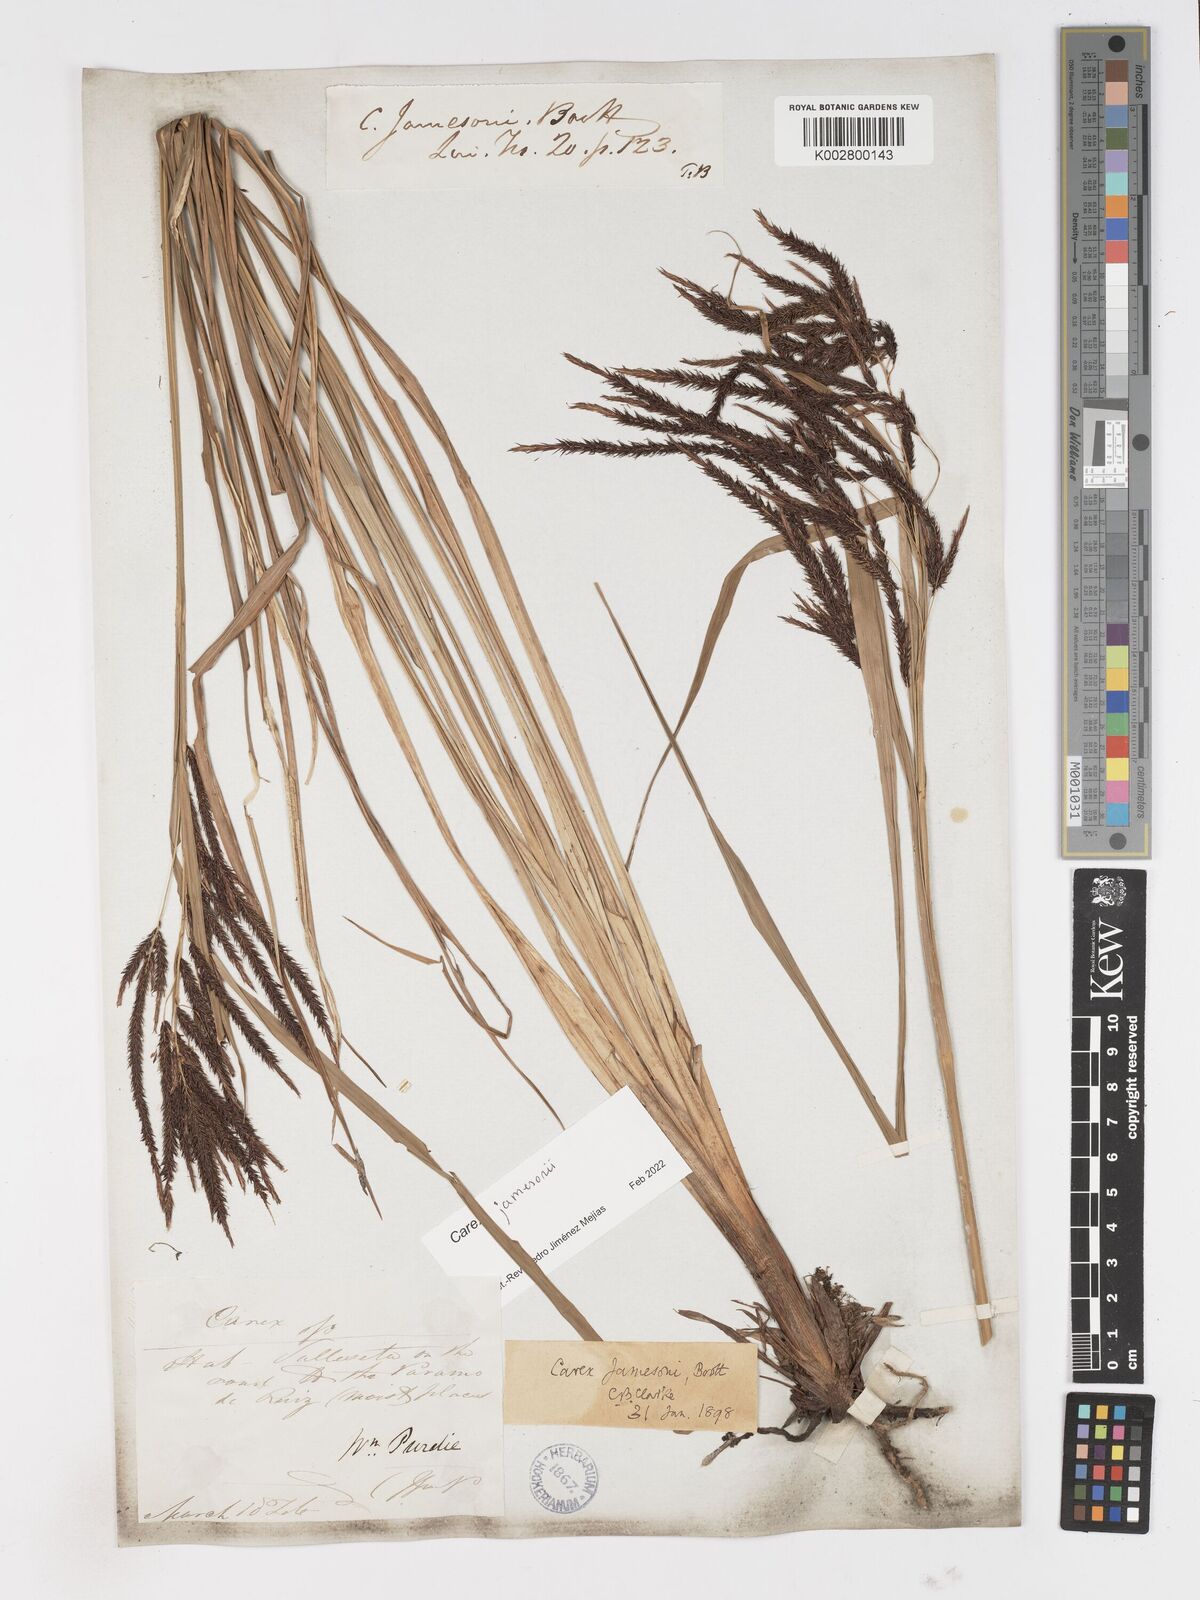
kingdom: Plantae
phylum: Tracheophyta
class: Liliopsida
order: Poales
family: Cyperaceae
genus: Carex
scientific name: Carex jamesonii
